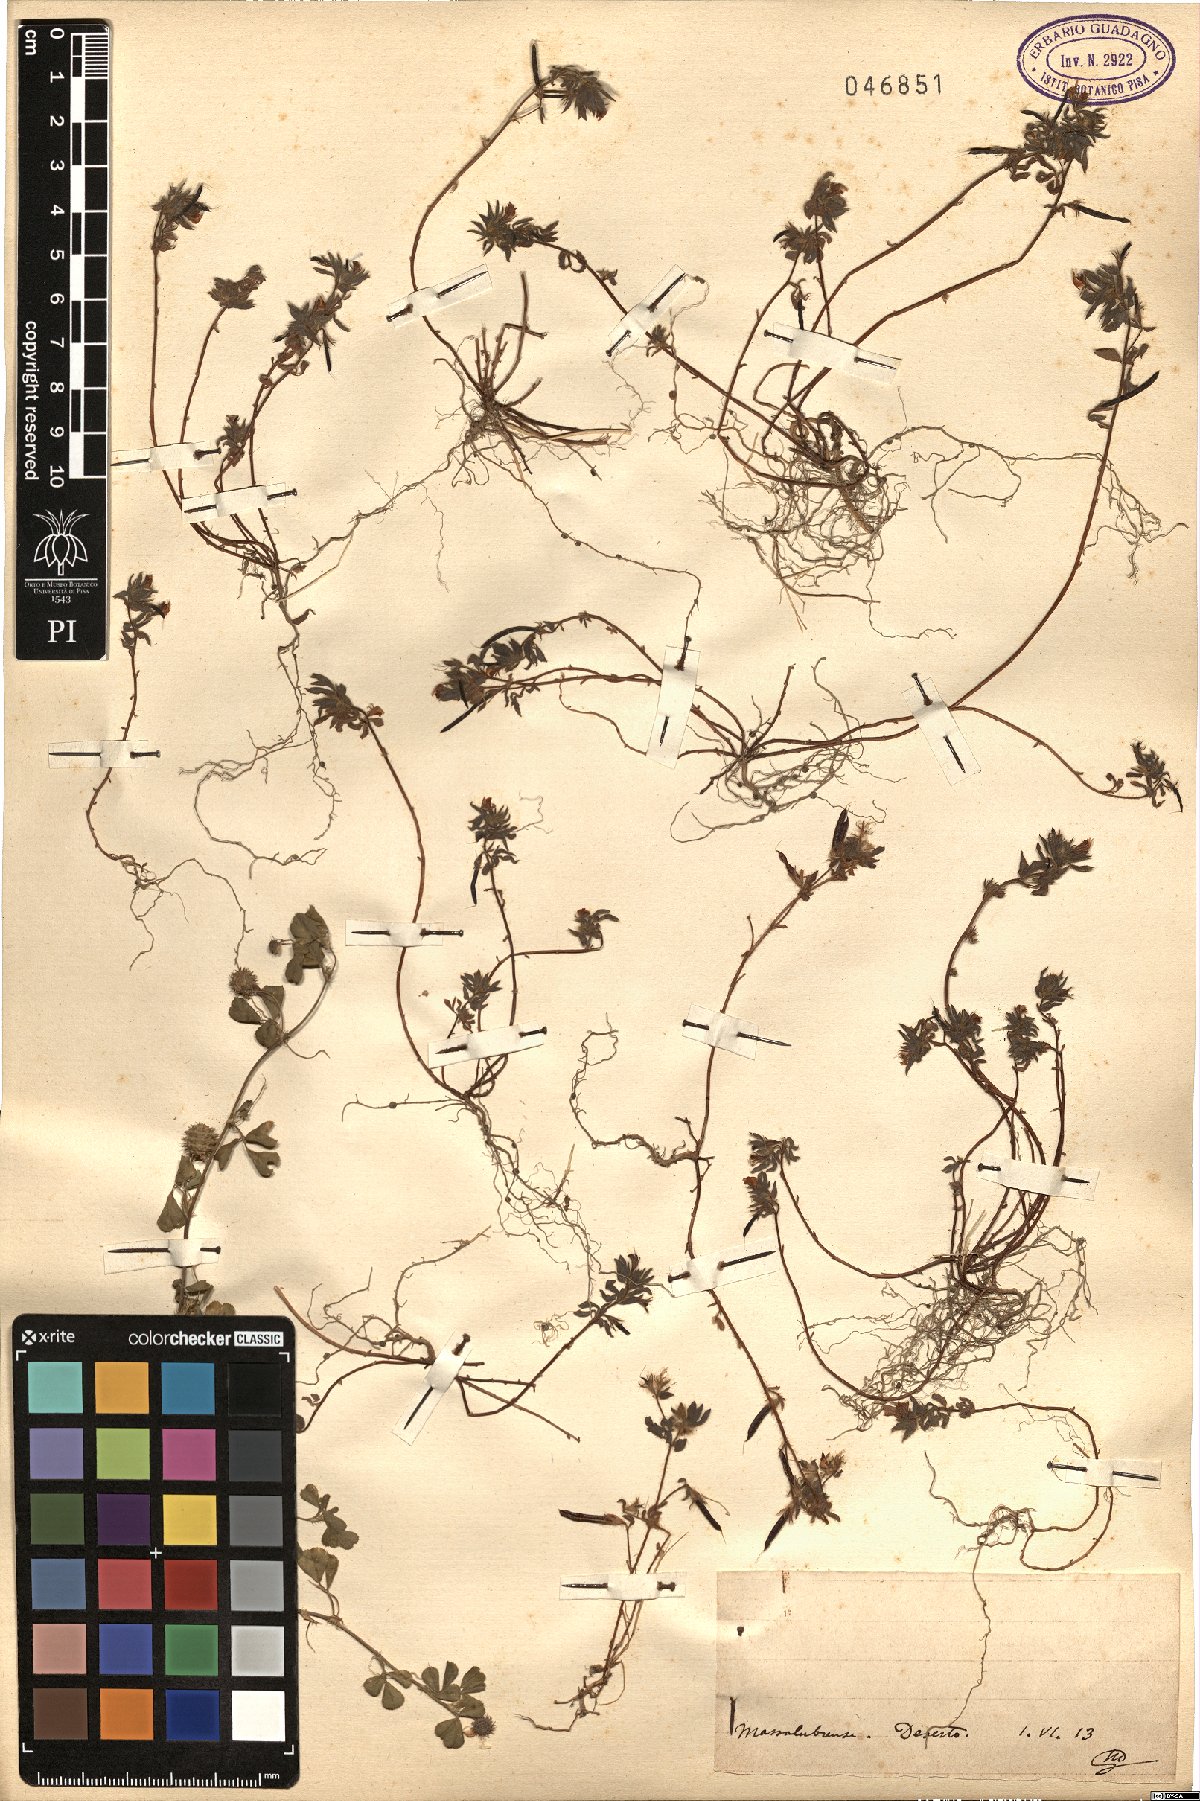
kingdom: Plantae
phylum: Tracheophyta
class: Magnoliopsida
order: Fabales
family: Fabaceae
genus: Lotus
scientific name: Lotus
